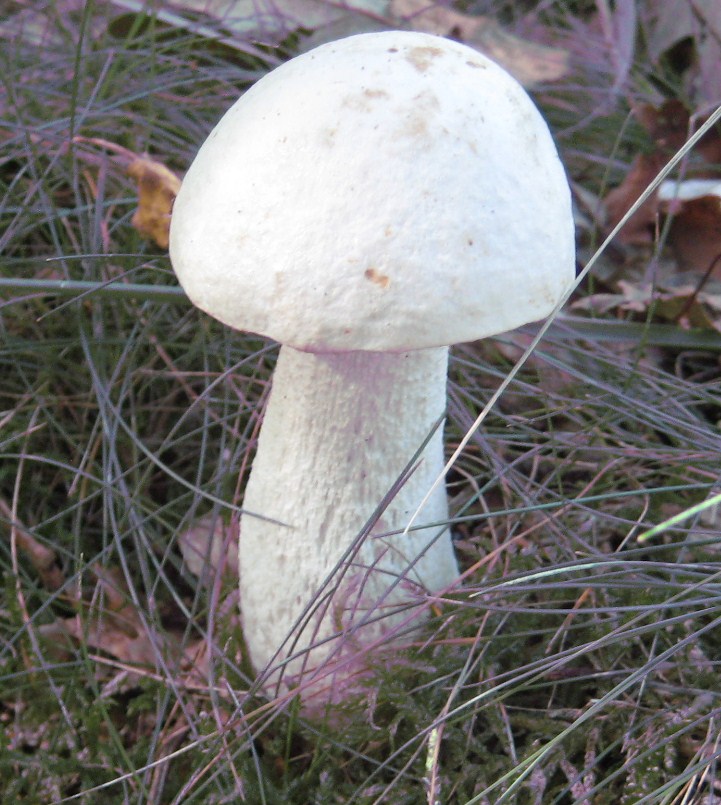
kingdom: Fungi
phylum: Basidiomycota
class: Agaricomycetes
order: Boletales
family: Boletaceae
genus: Leccinum
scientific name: Leccinum scabrum
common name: hvid skælrørhat
